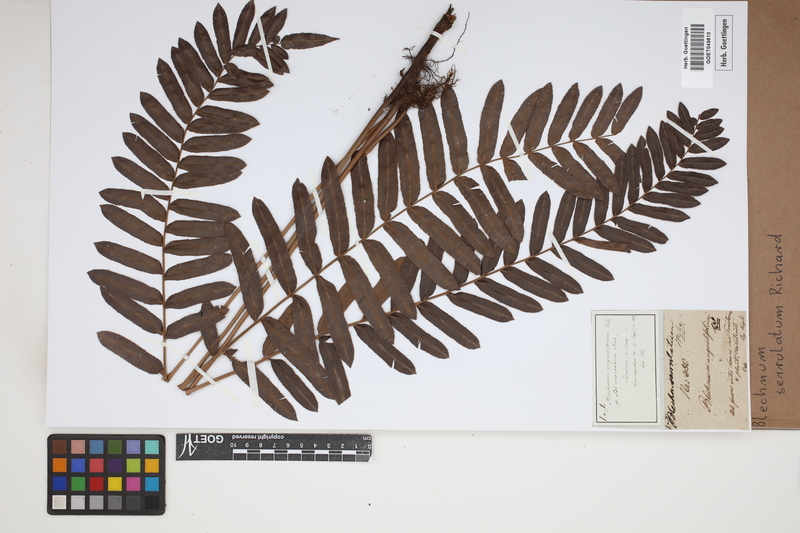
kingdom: Plantae
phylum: Tracheophyta
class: Polypodiopsida
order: Polypodiales
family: Blechnaceae
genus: Telmatoblechnum
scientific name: Telmatoblechnum serrulatum
